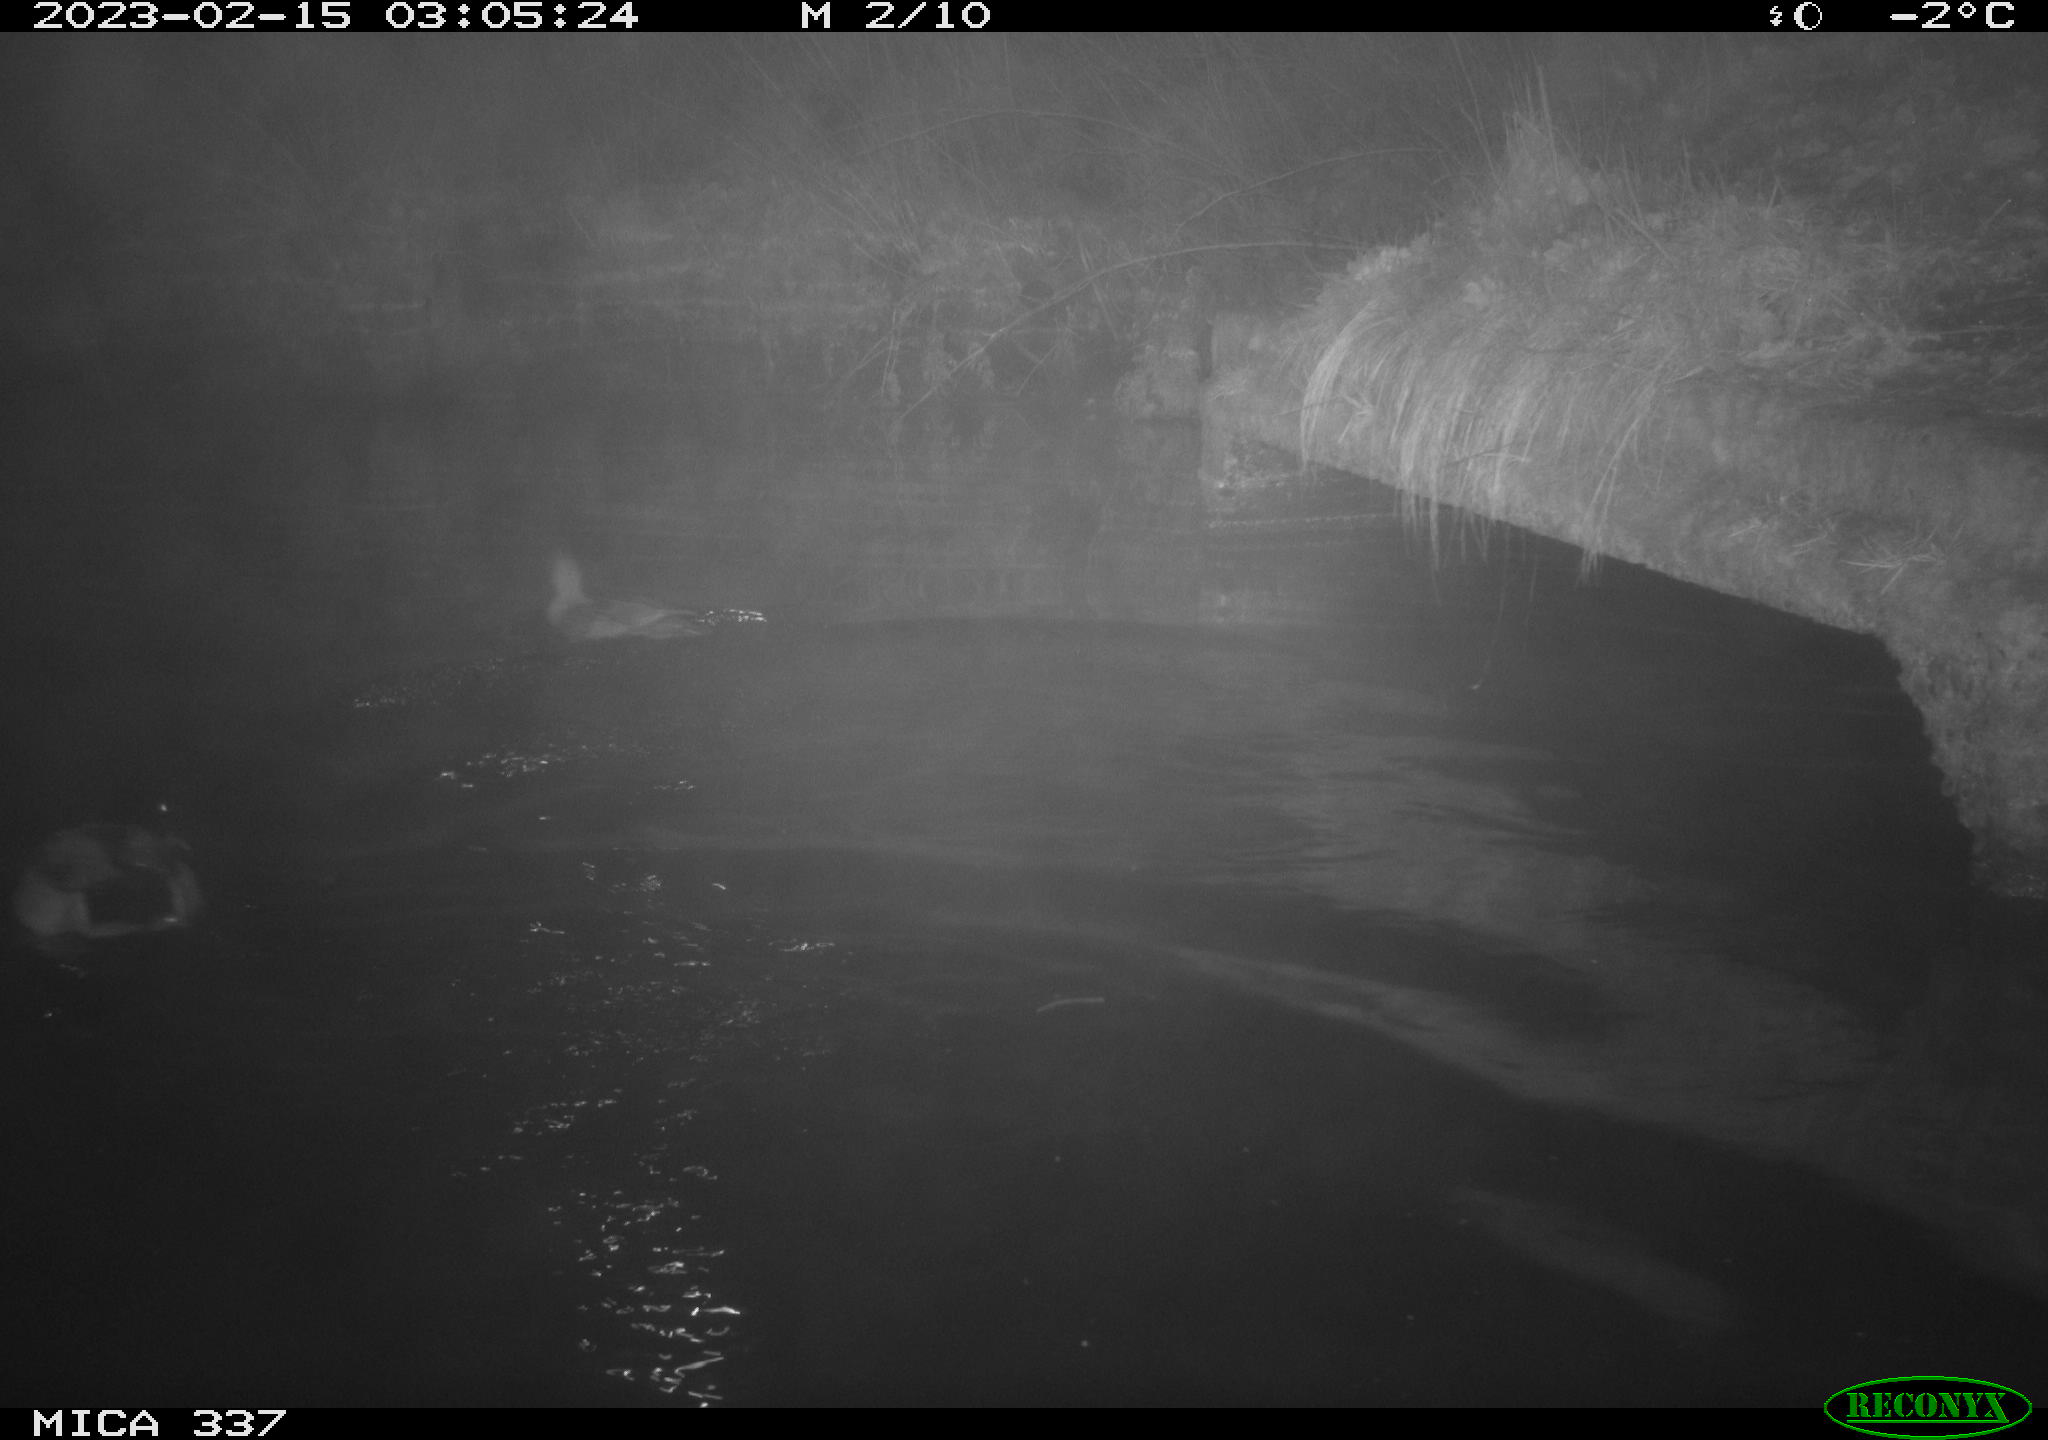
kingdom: Animalia
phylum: Chordata
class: Aves
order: Anseriformes
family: Anatidae
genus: Anas
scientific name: Anas
